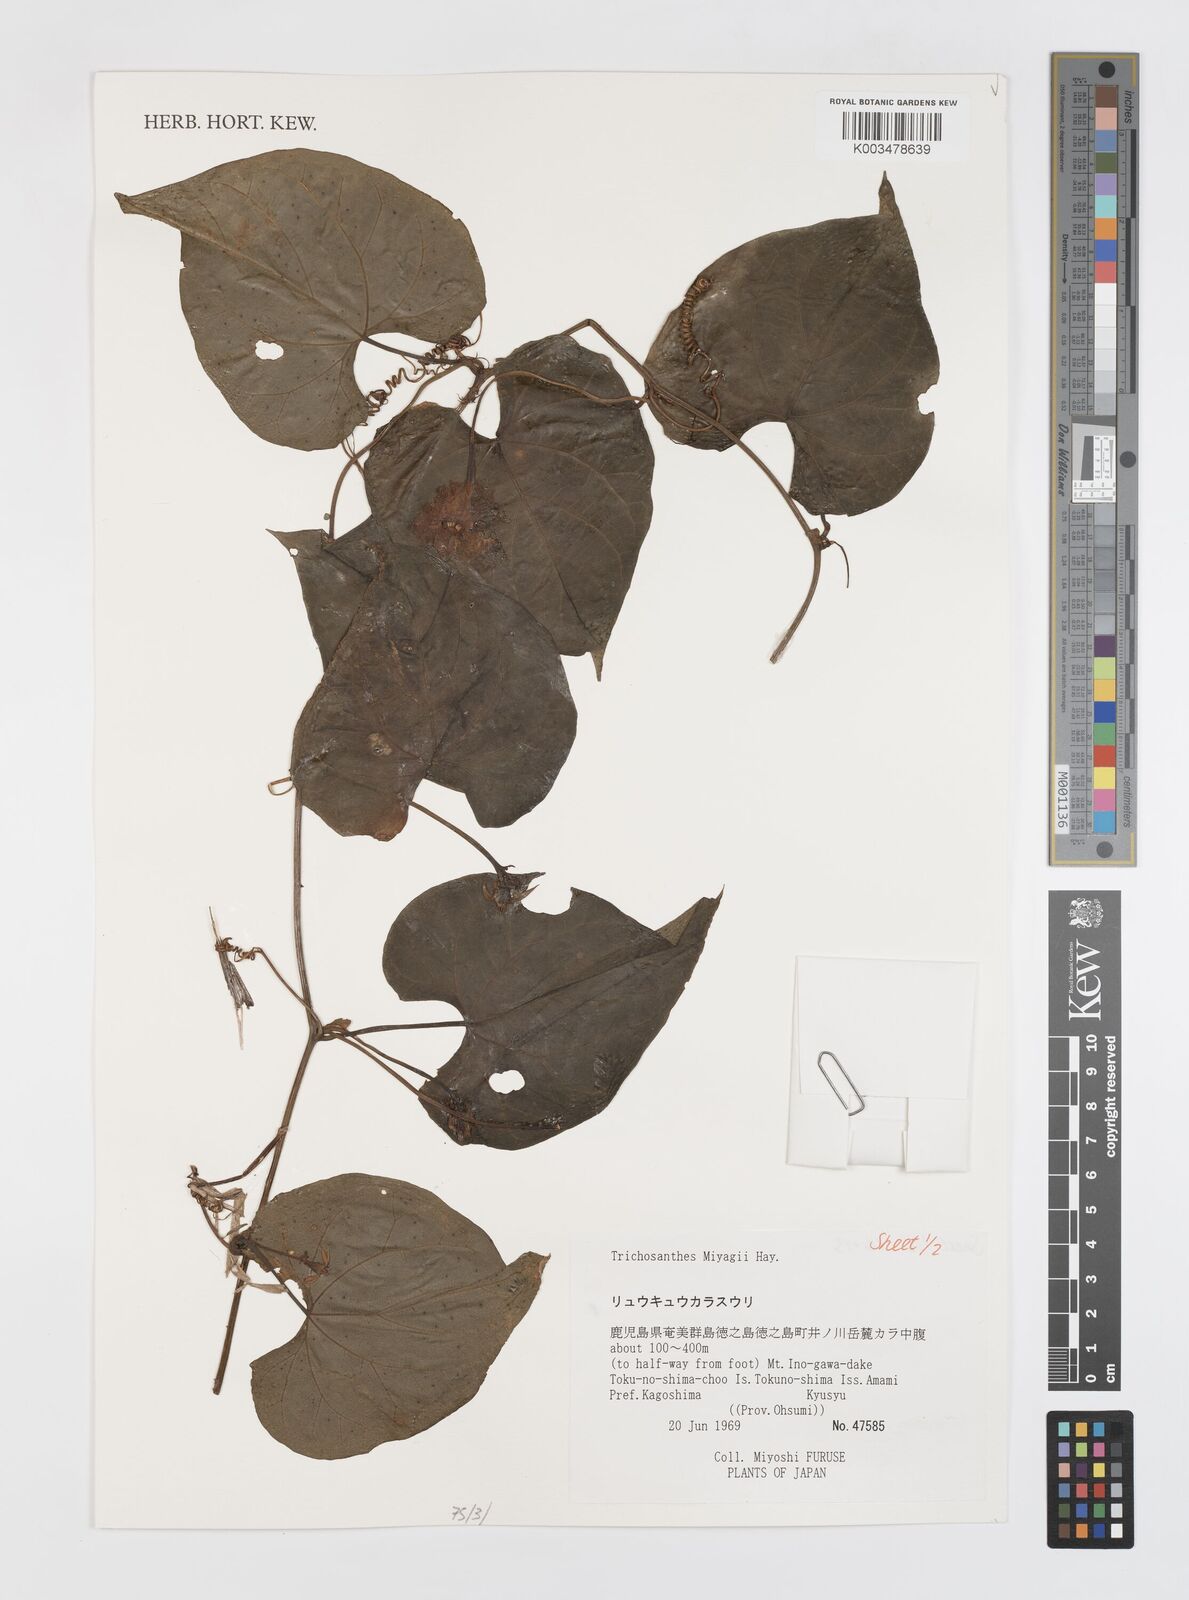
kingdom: Plantae
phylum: Tracheophyta
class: Magnoliopsida
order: Cucurbitales
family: Cucurbitaceae
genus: Trichosanthes
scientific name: Trichosanthes miyagii
